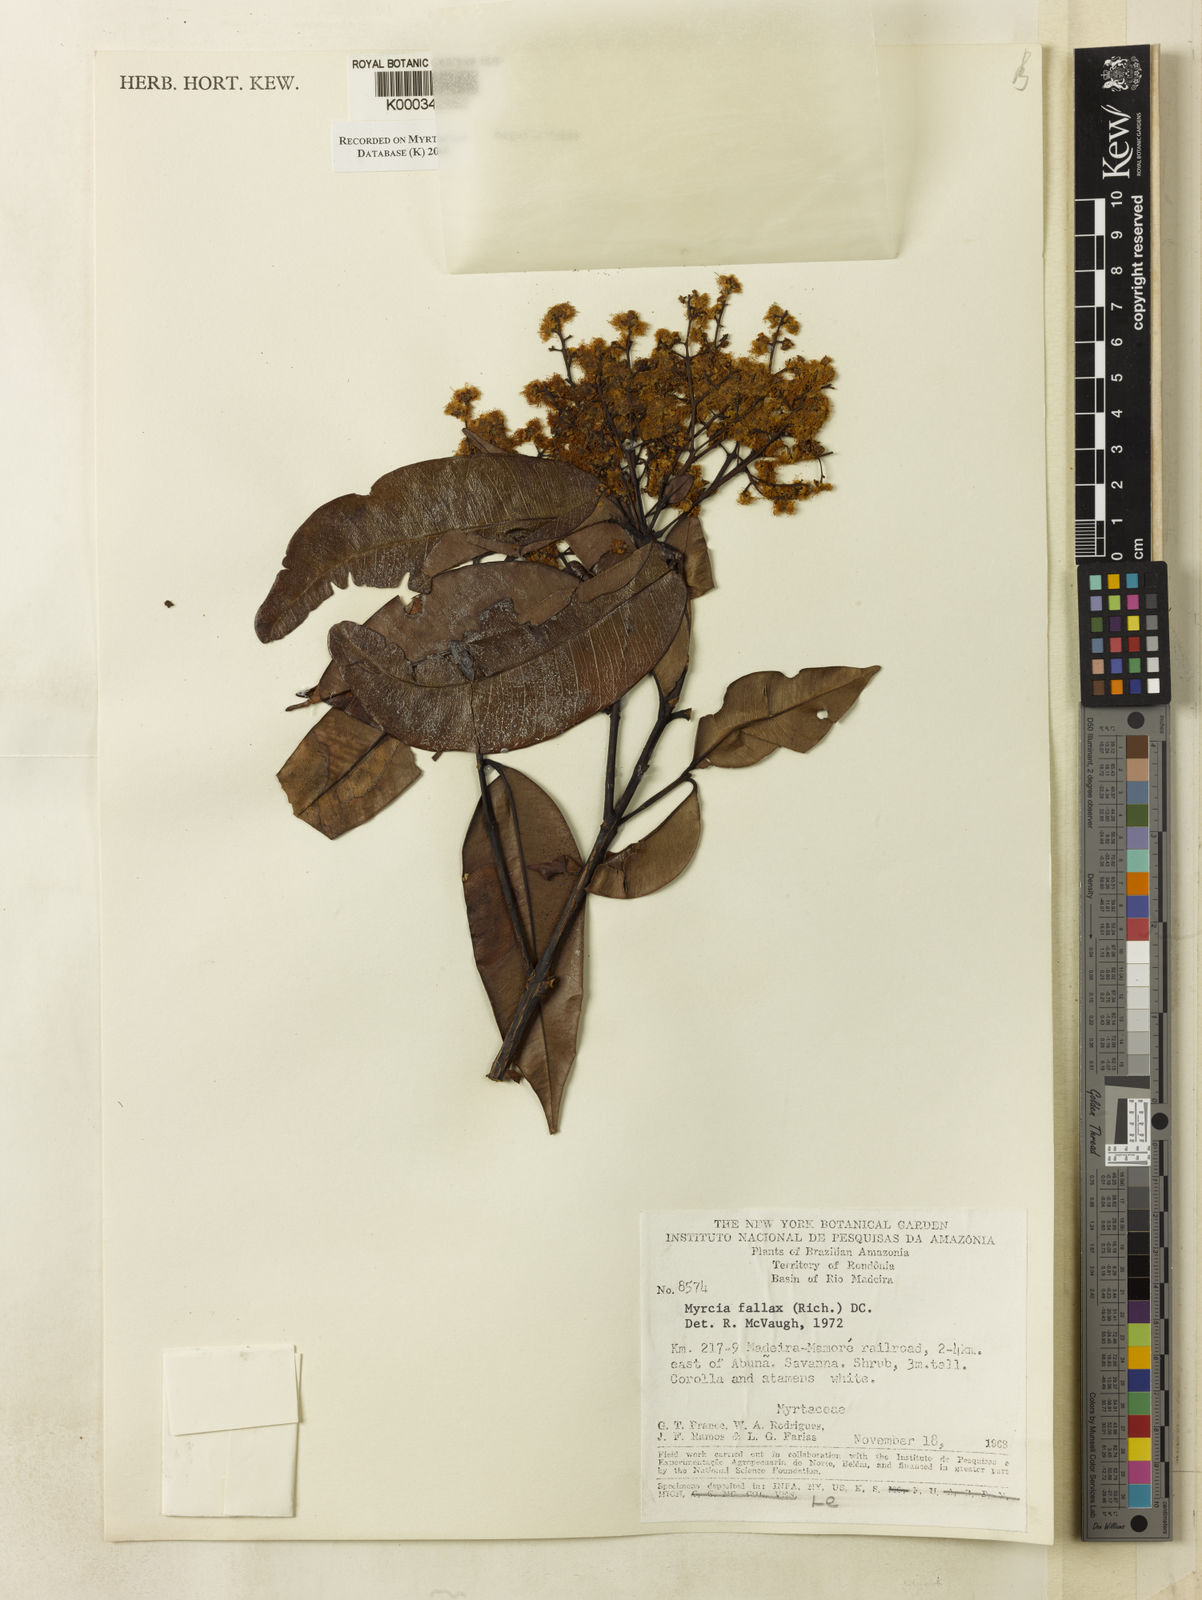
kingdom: Plantae
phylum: Tracheophyta
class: Magnoliopsida
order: Myrtales
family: Myrtaceae
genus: Myrcia
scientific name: Myrcia splendens
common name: Surinam cherry
